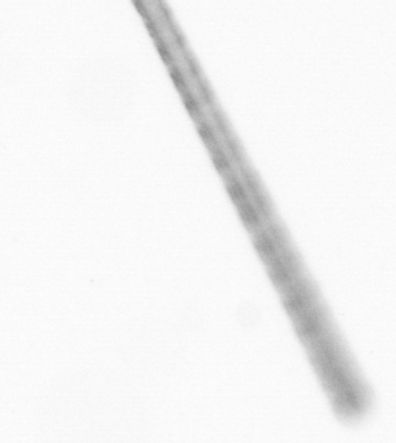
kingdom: Chromista
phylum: Ochrophyta
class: Bacillariophyceae
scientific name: Bacillariophyceae
